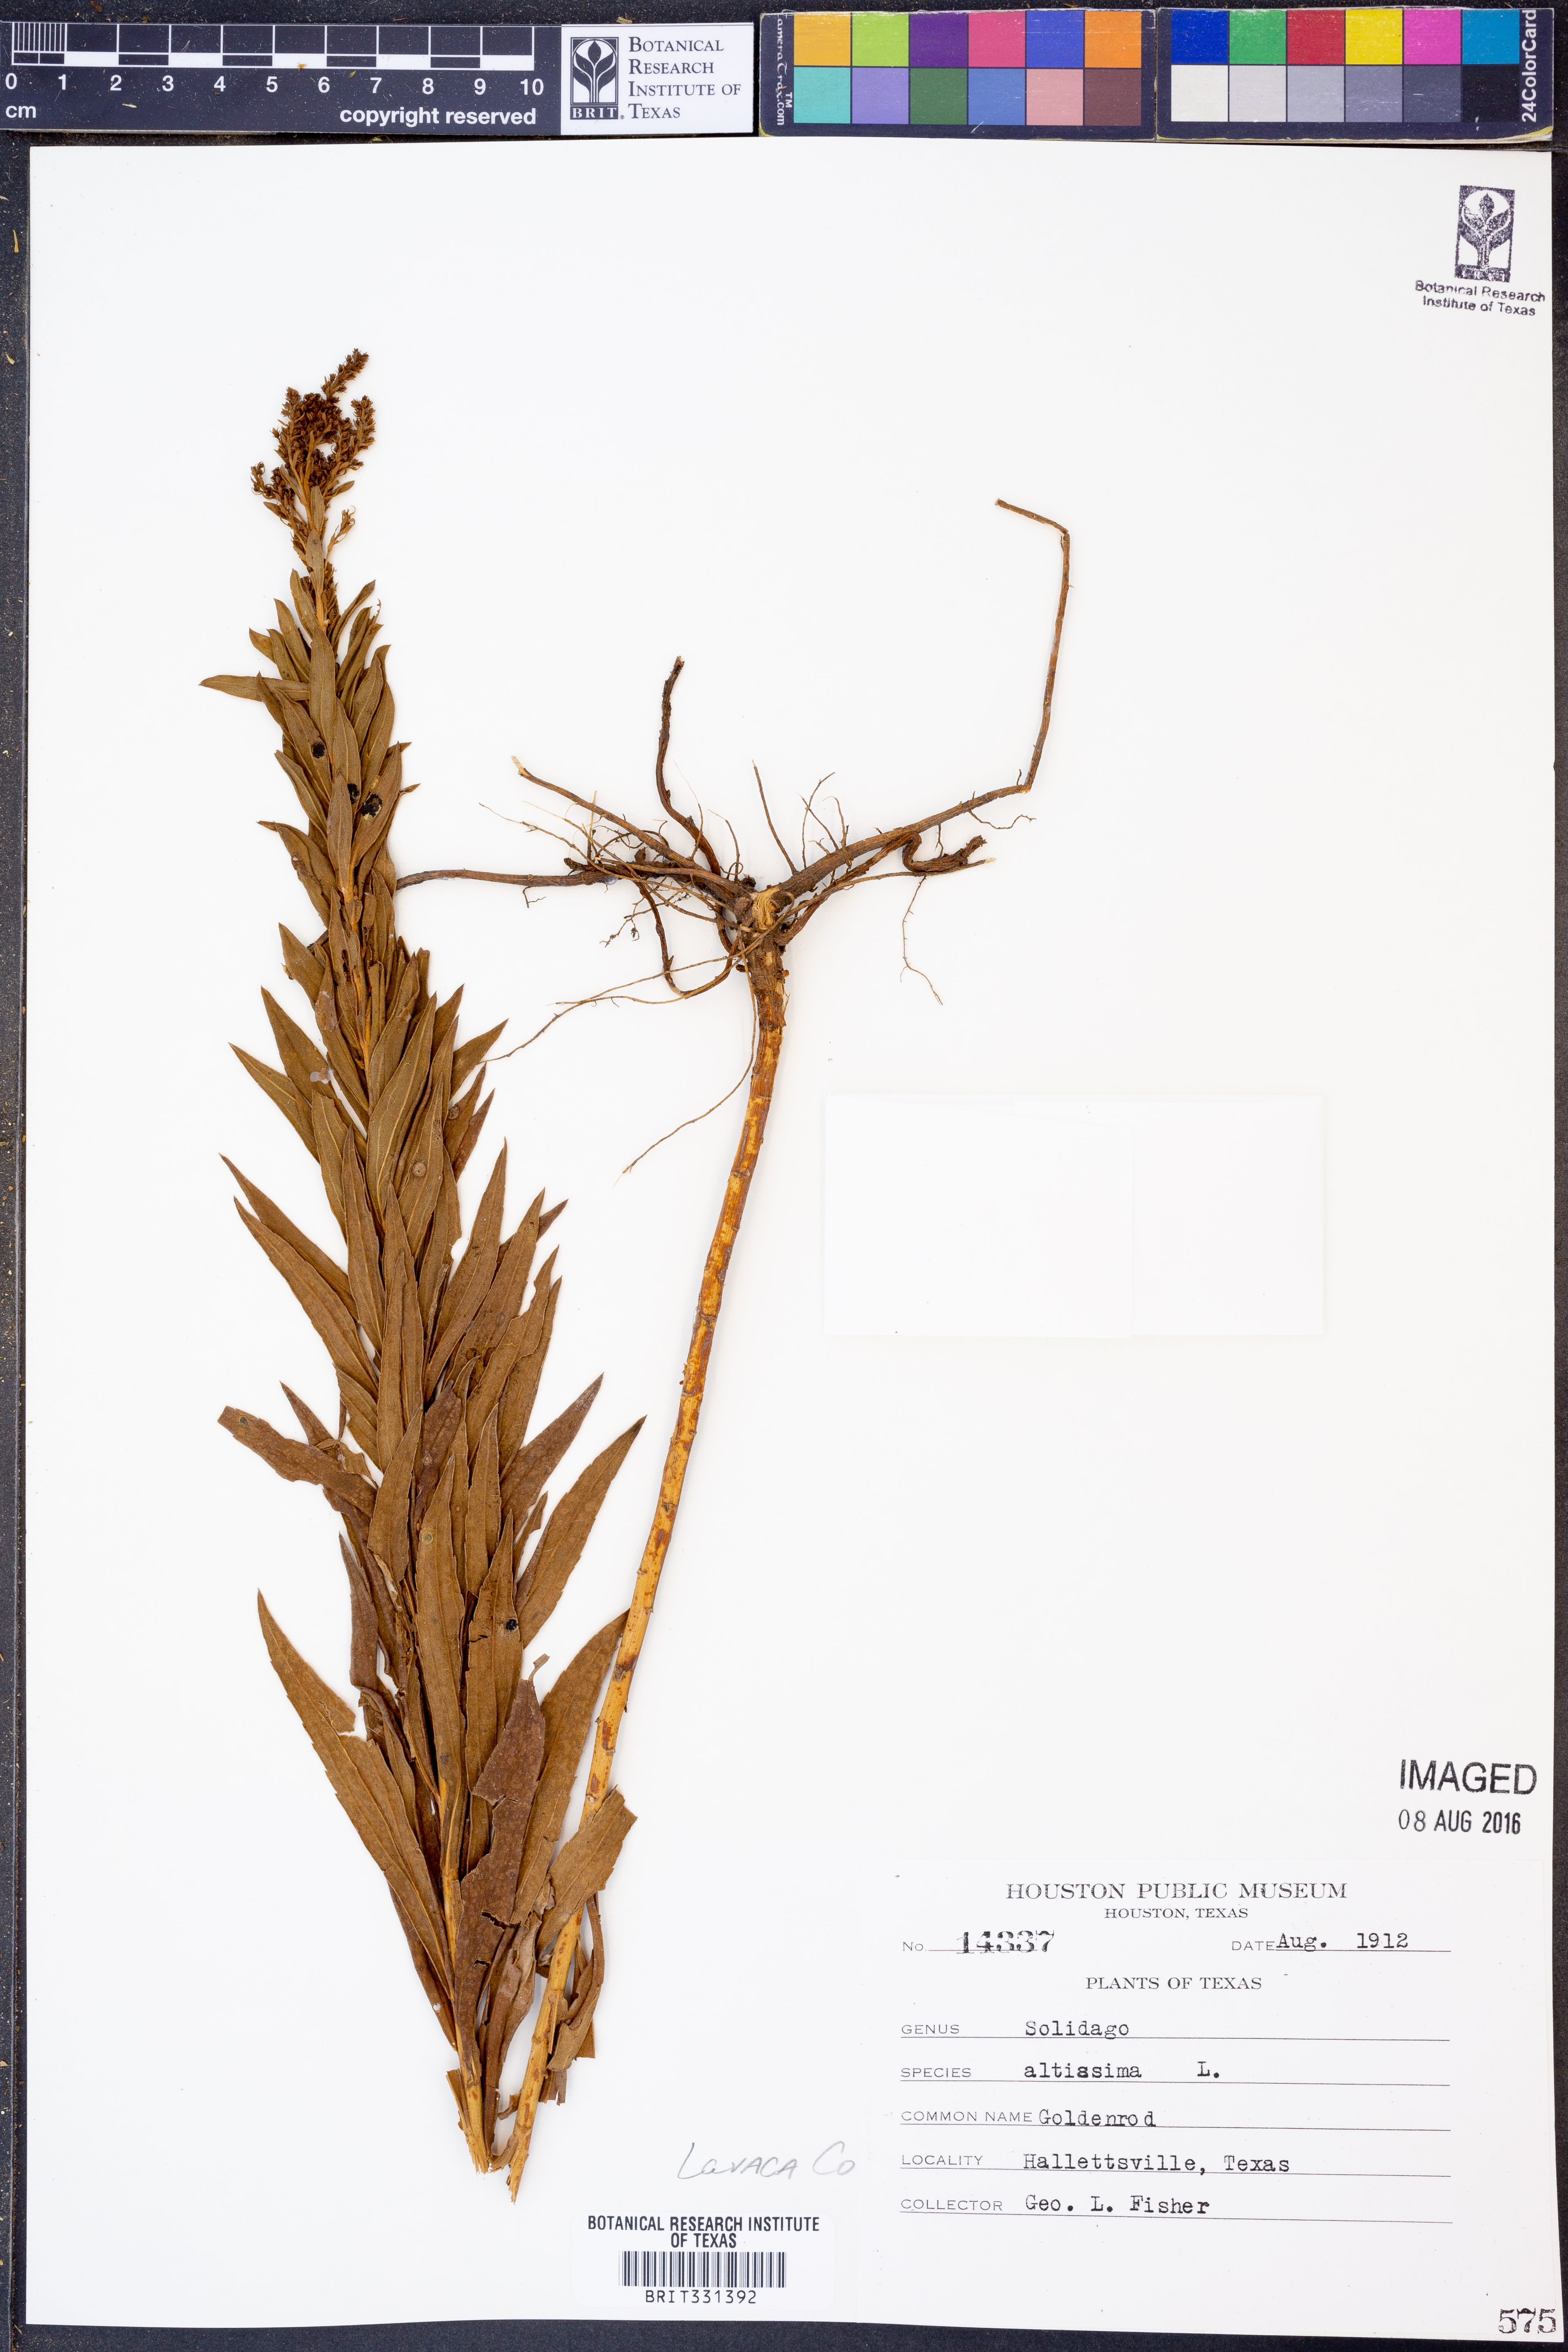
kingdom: Plantae
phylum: Tracheophyta
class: Magnoliopsida
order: Asterales
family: Asteraceae
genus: Solidago
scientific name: Solidago altissima
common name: Late goldenrod
